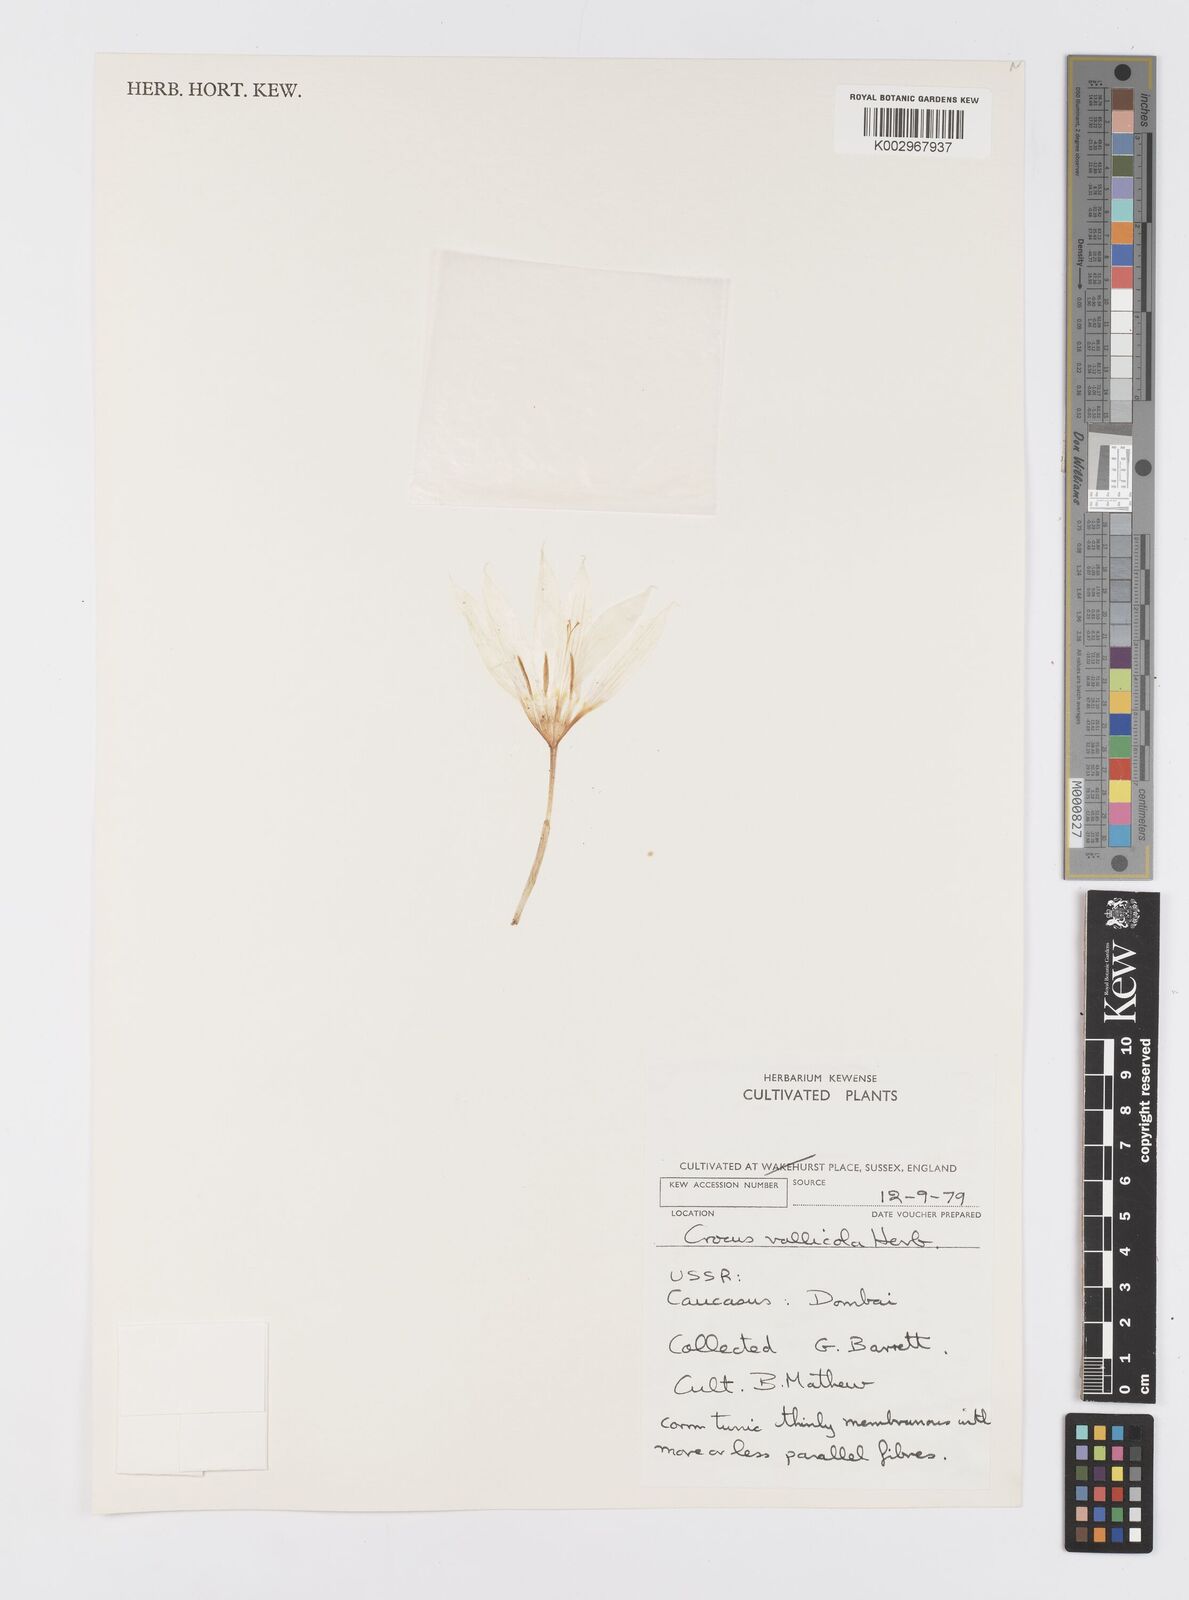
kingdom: Plantae
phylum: Tracheophyta
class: Liliopsida
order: Asparagales
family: Iridaceae
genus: Crocus
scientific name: Crocus vallicola
